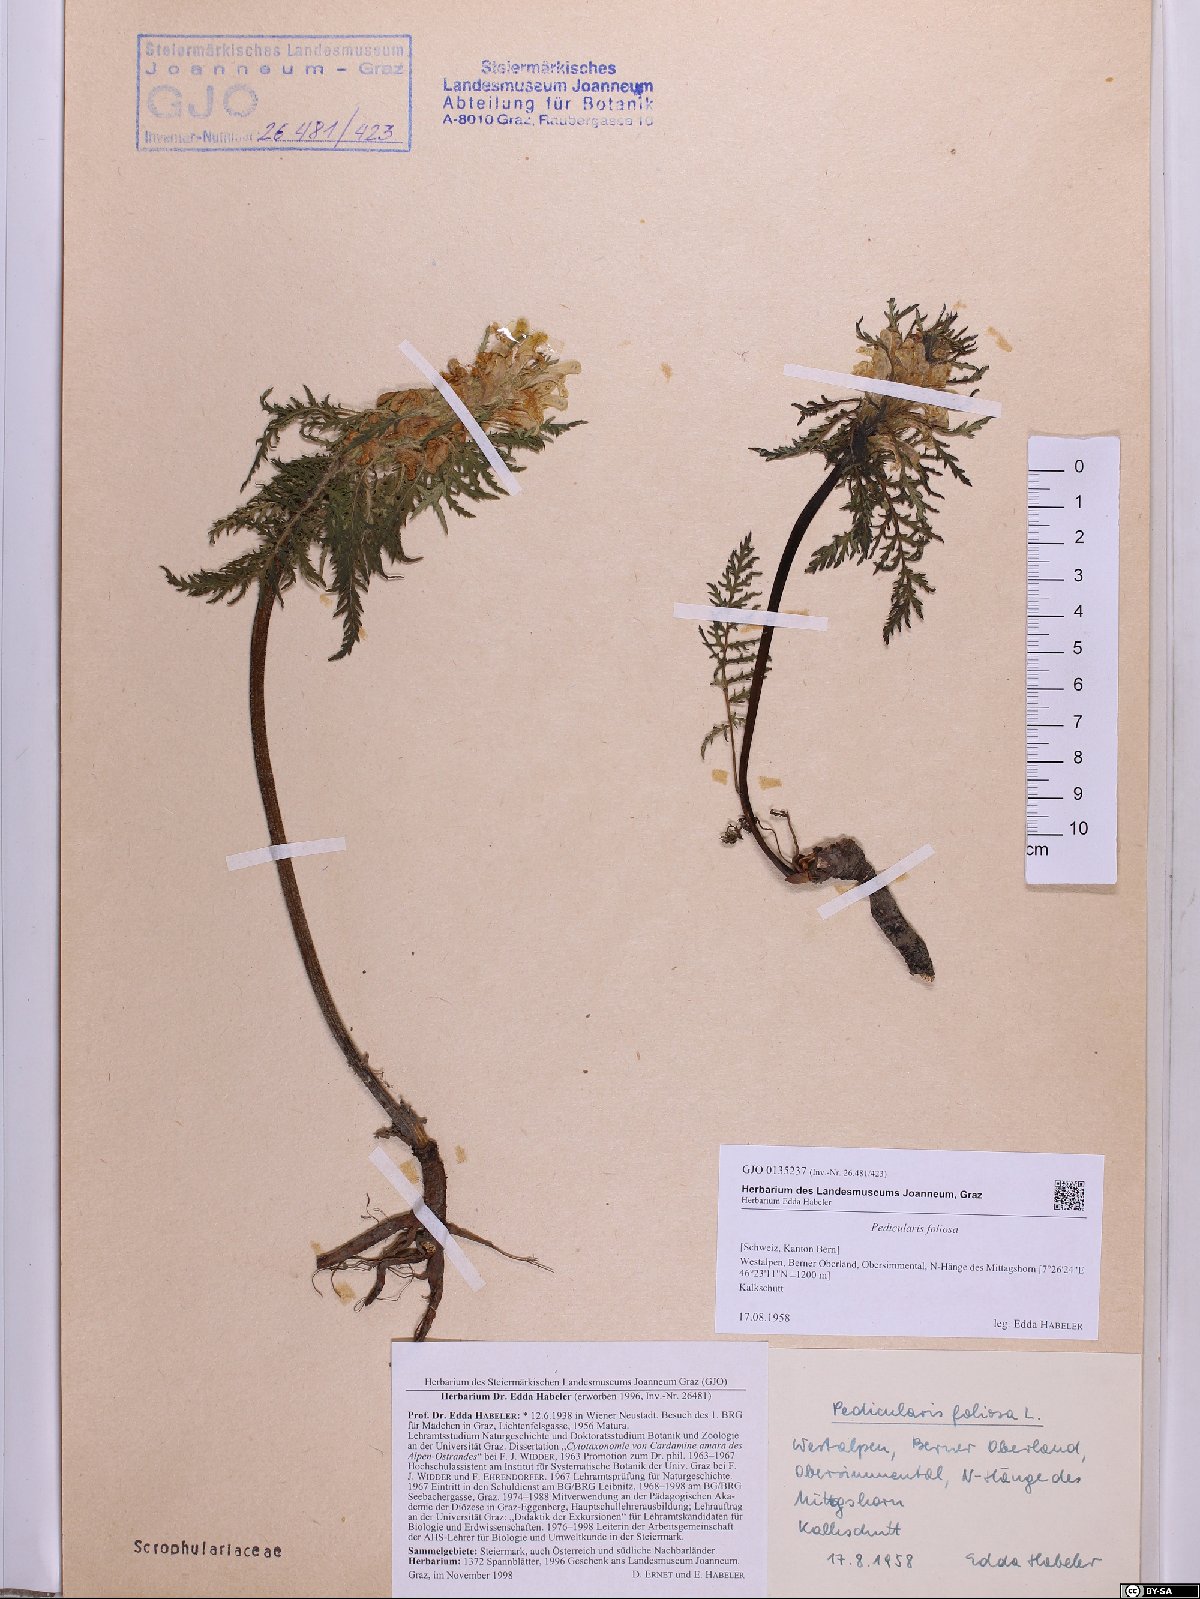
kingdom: Plantae
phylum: Tracheophyta
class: Magnoliopsida
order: Lamiales
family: Orobanchaceae
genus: Pedicularis
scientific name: Pedicularis foliosa
